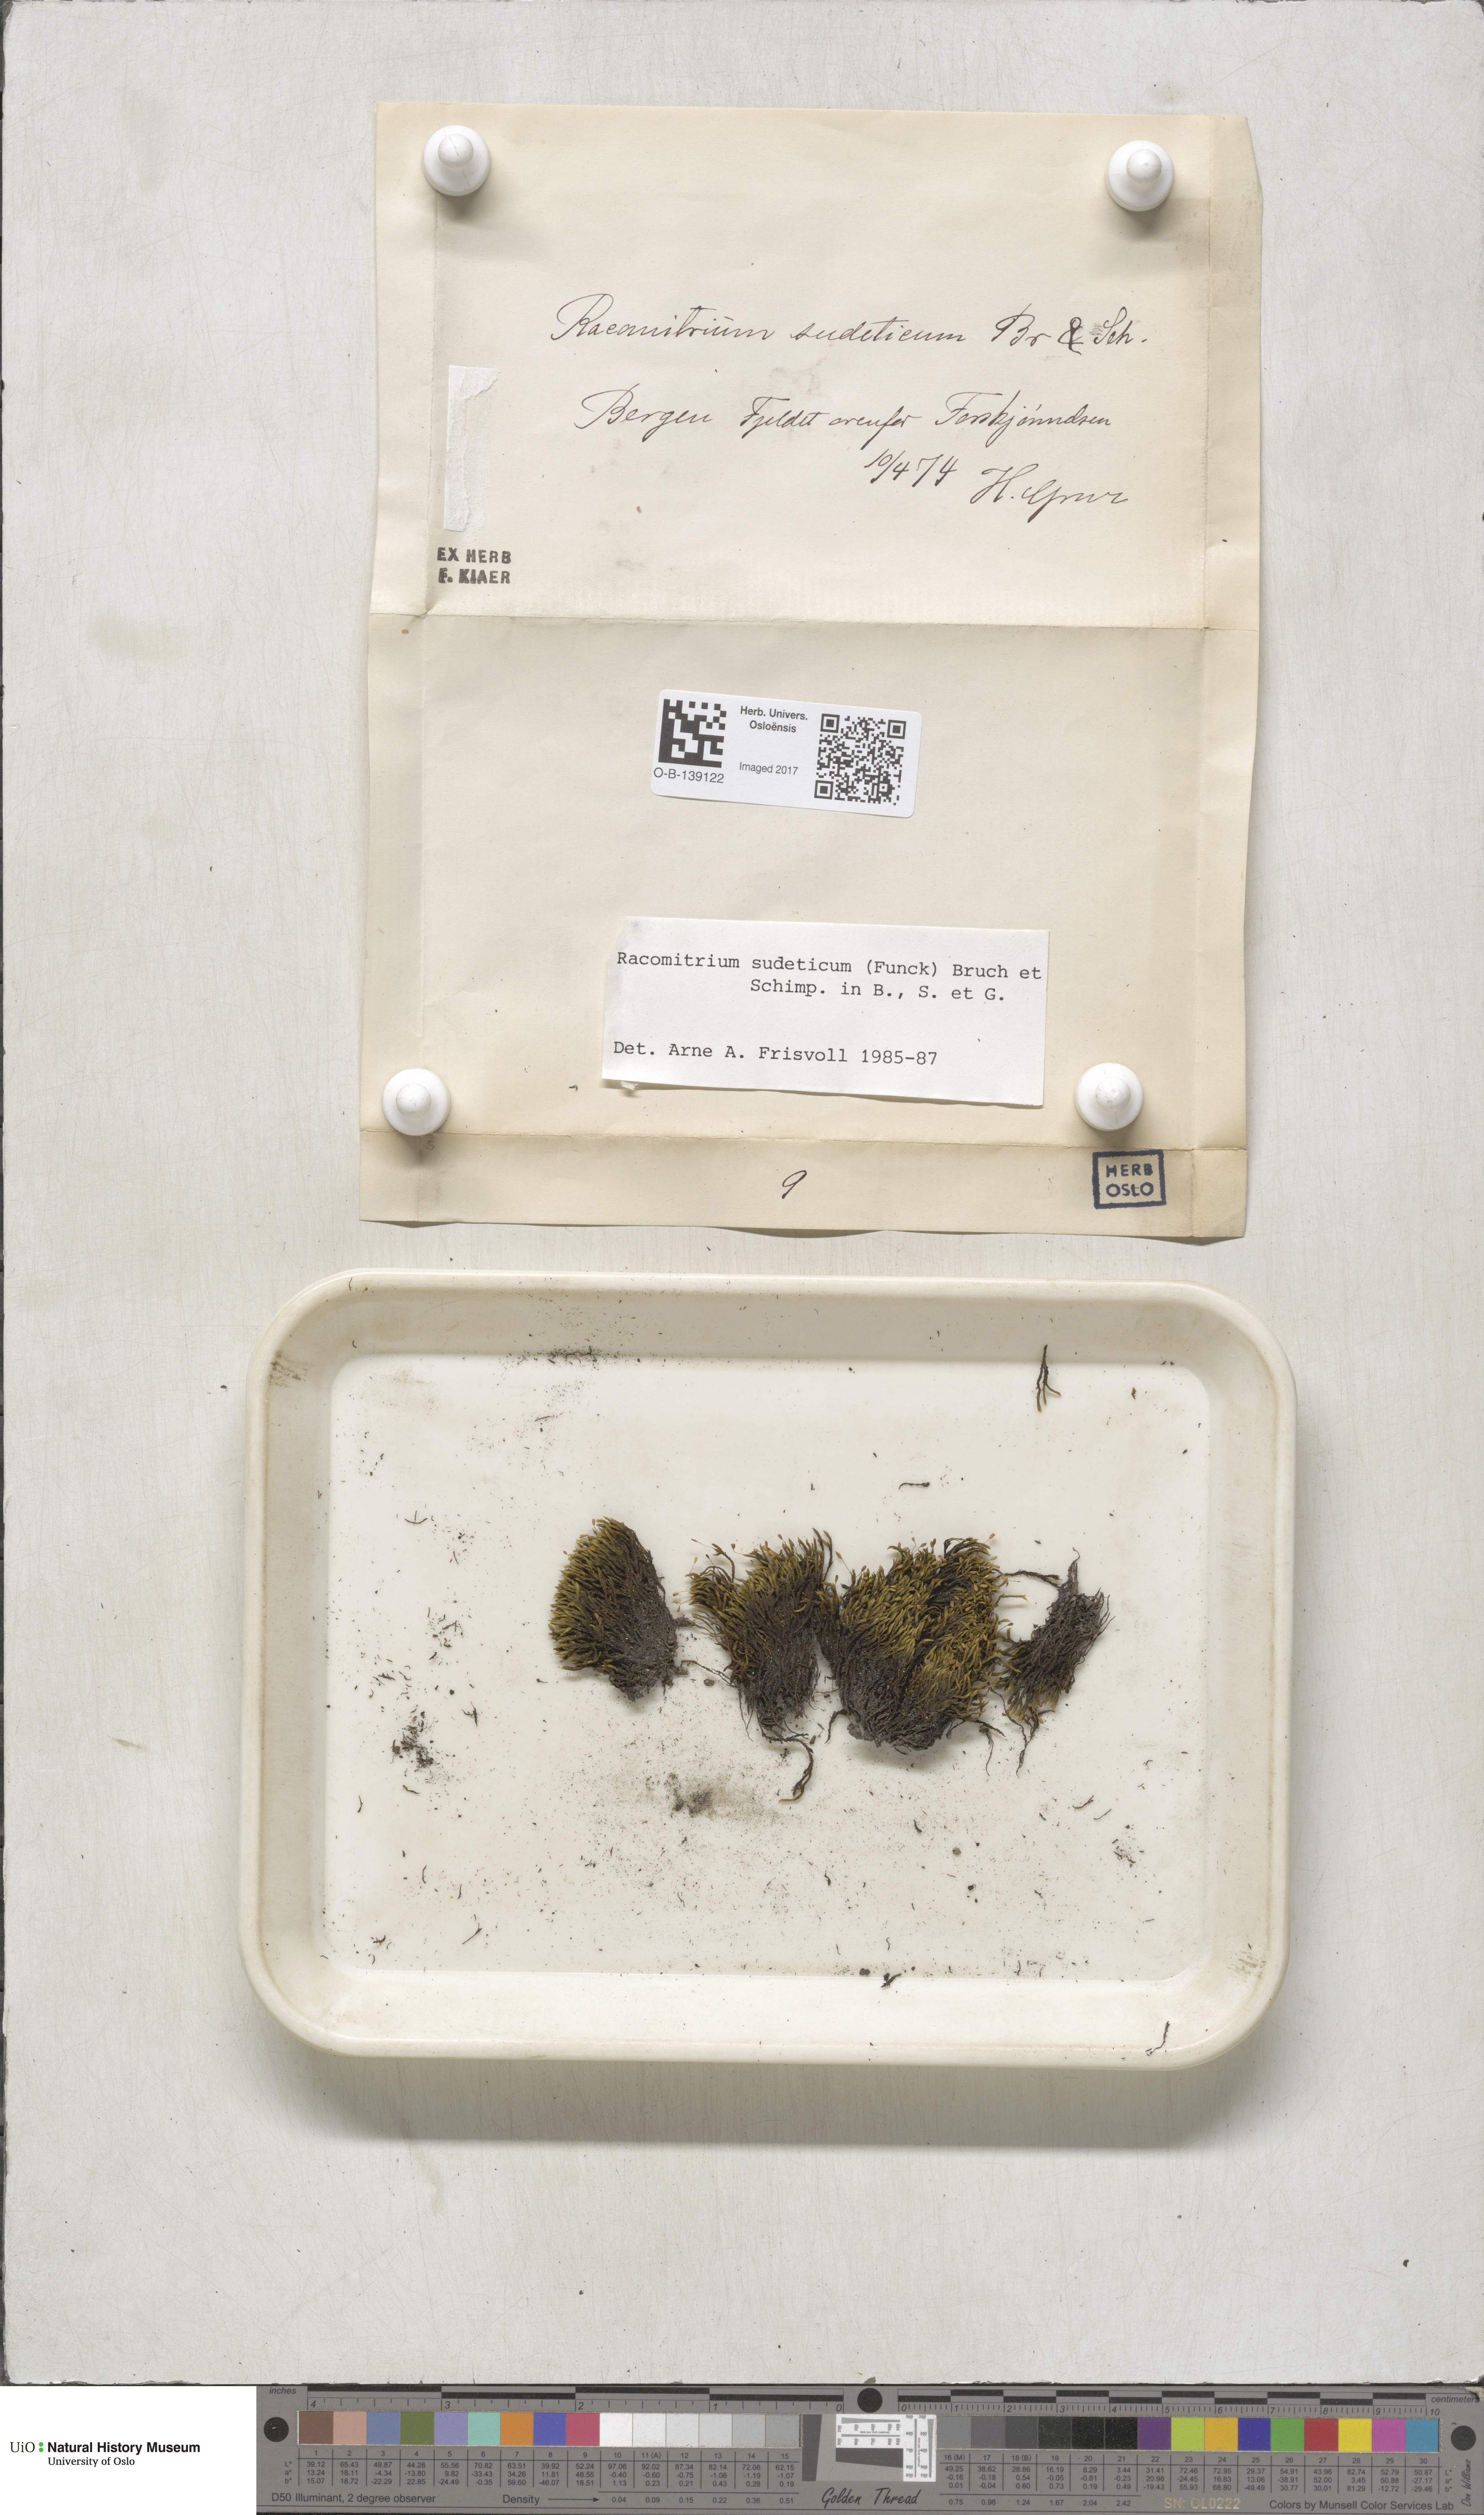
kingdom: Plantae
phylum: Bryophyta
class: Bryopsida
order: Grimmiales
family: Grimmiaceae
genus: Bucklandiella
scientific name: Bucklandiella sudetica
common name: Slender fringe-moss
